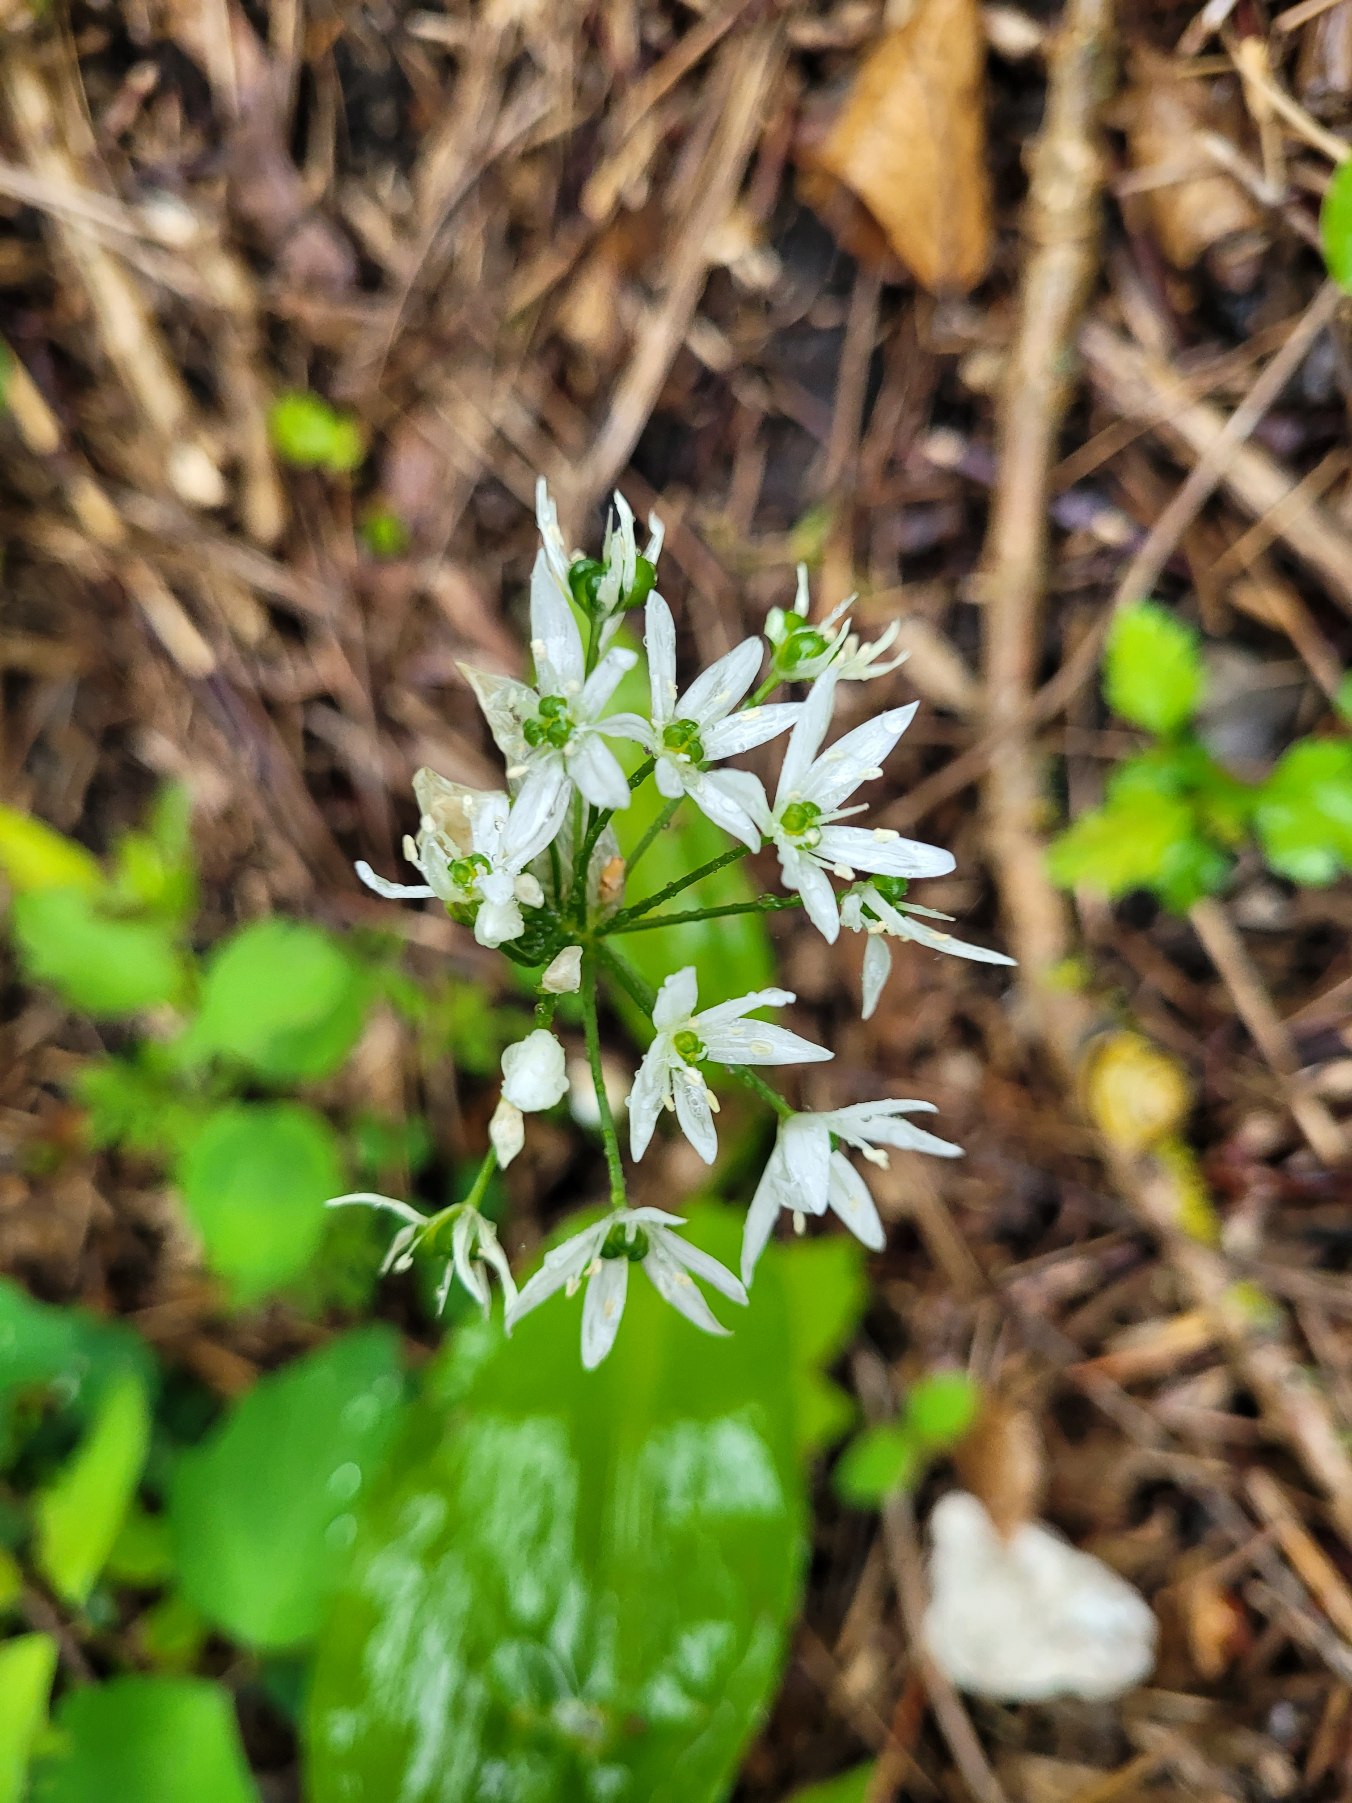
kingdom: Plantae
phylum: Tracheophyta
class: Liliopsida
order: Asparagales
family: Amaryllidaceae
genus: Allium
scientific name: Allium ursinum
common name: Rams-løg
